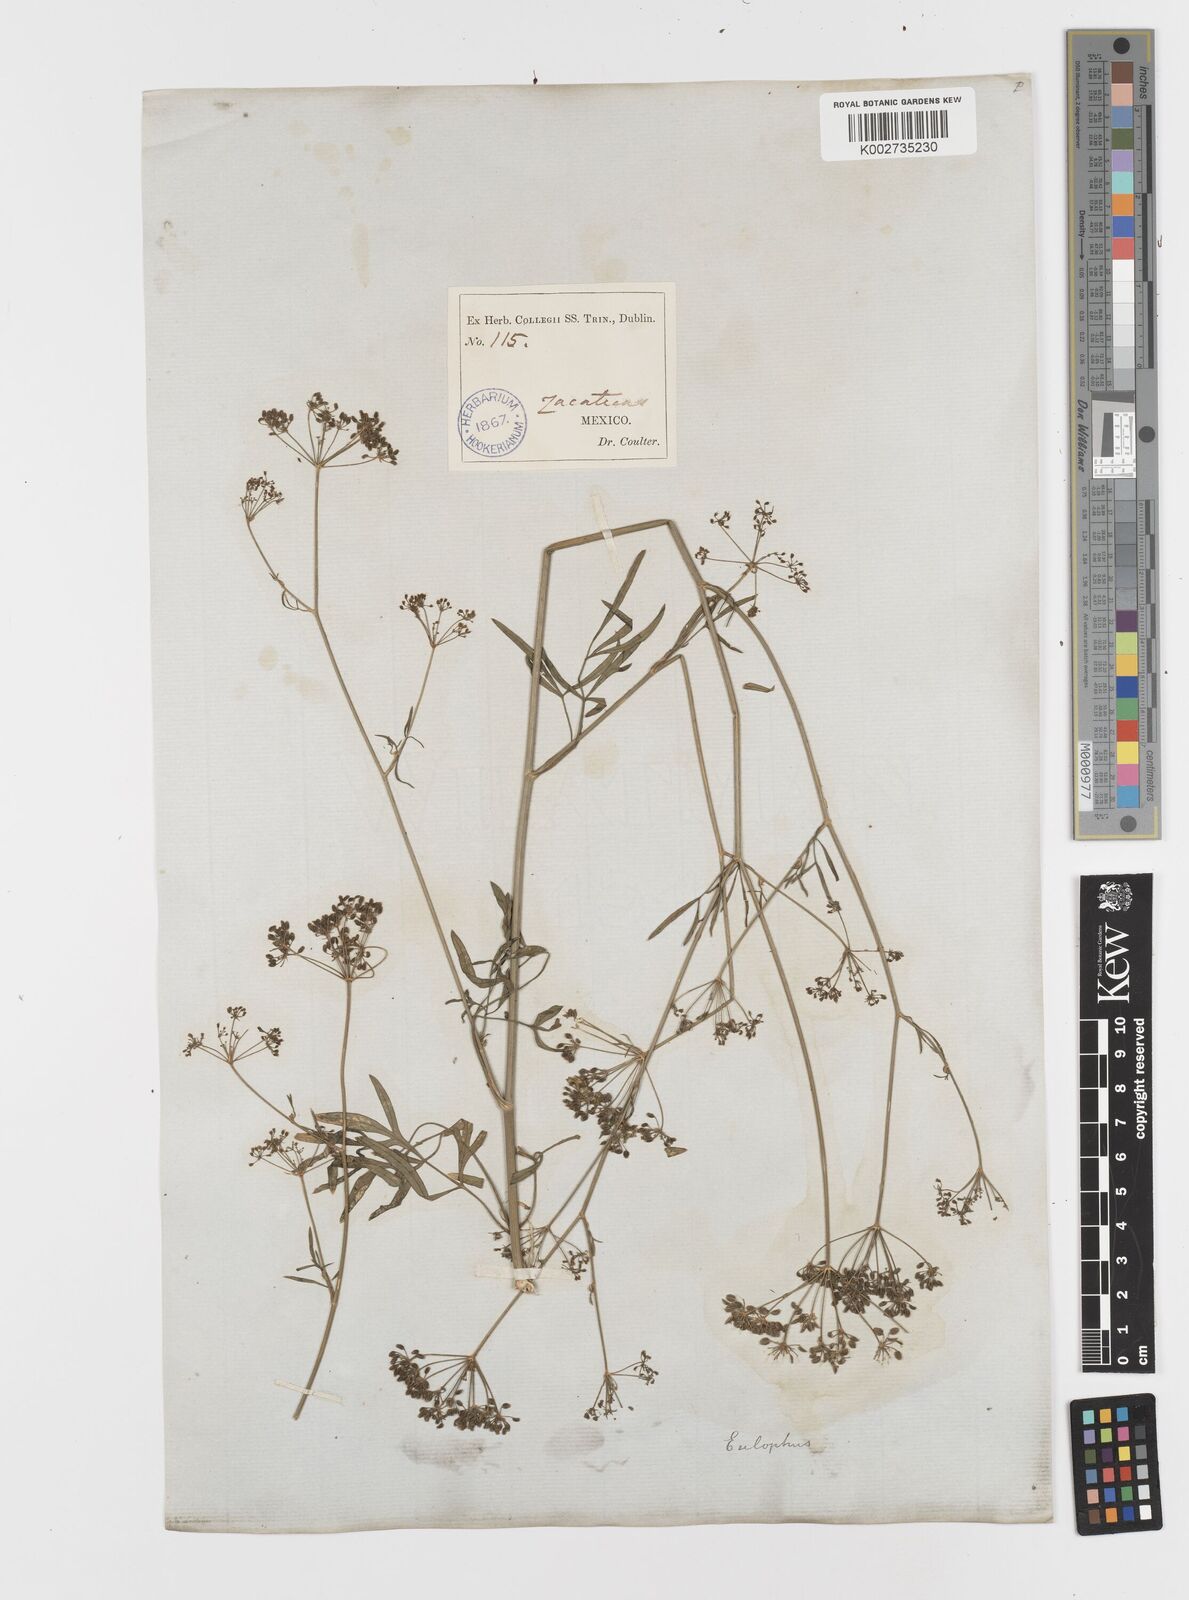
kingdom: Plantae
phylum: Tracheophyta
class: Magnoliopsida
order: Apiales
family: Apiaceae
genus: Petroselinum
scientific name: Petroselinum
